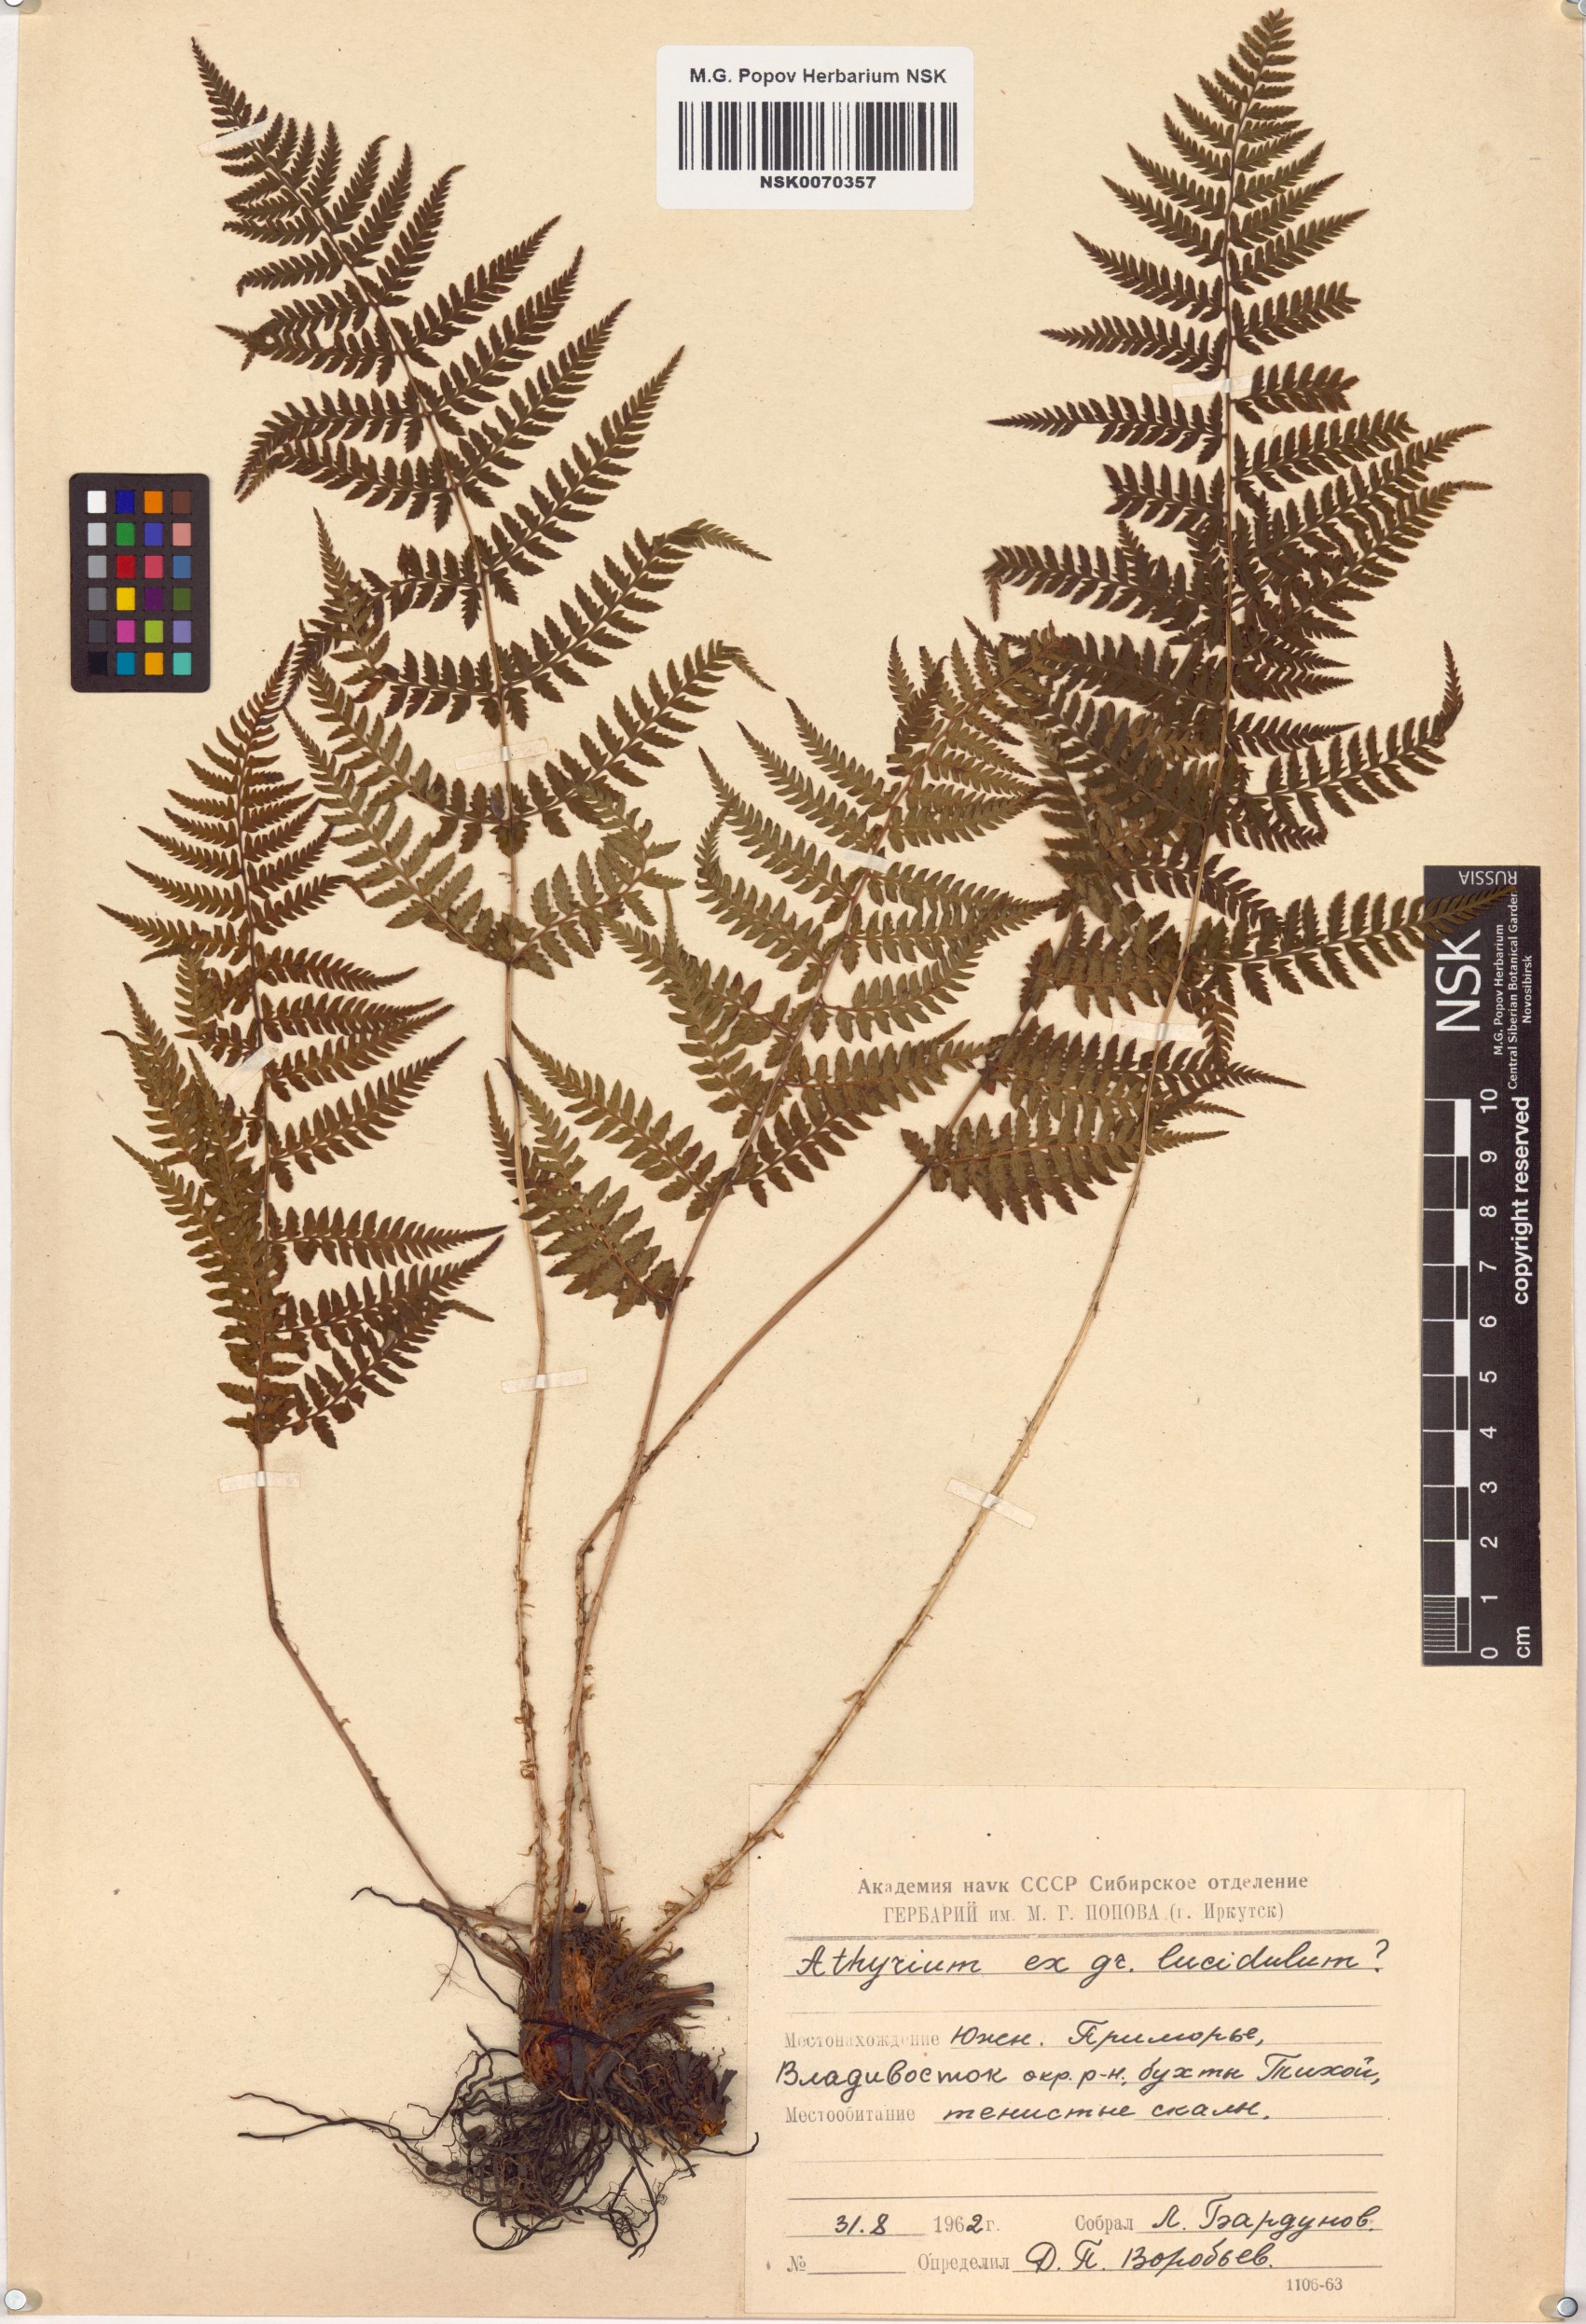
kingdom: Plantae
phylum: Tracheophyta
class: Polypodiopsida
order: Polypodiales
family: Athyriaceae
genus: Athyrium
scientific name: Athyrium yokoscense
